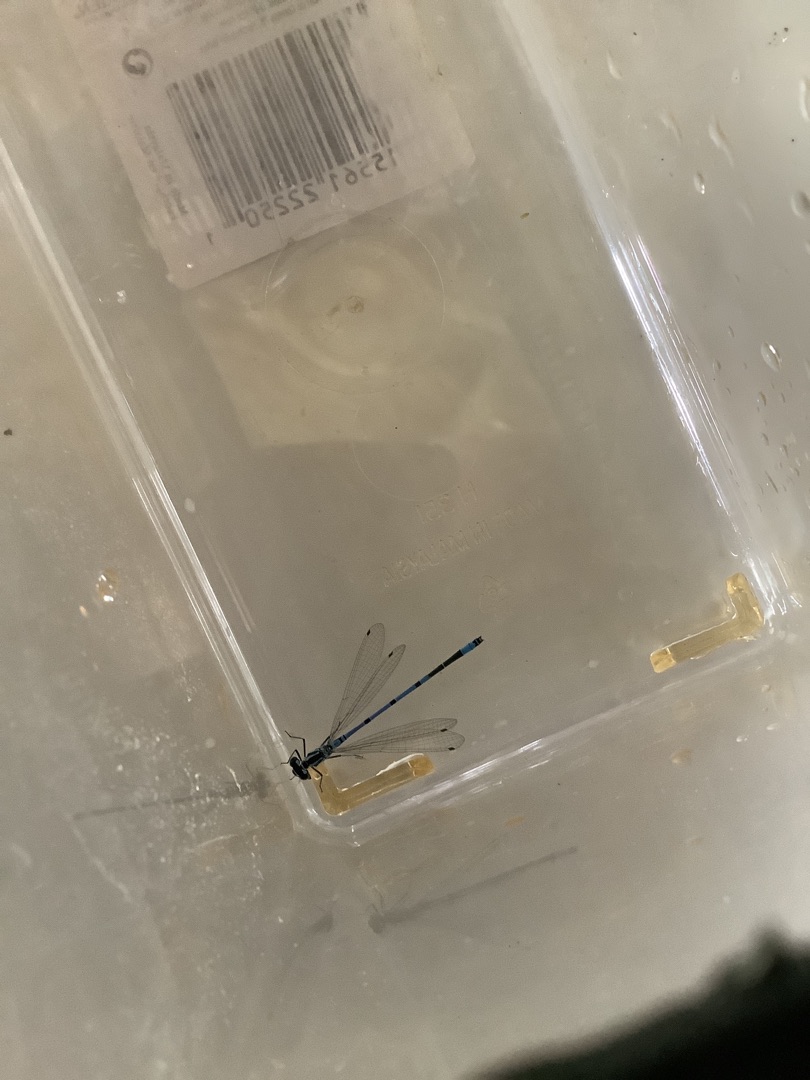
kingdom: Animalia
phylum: Arthropoda
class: Insecta
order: Odonata
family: Coenagrionidae
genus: Coenagrion
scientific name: Coenagrion puella
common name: Hestesko-vandnymfe
